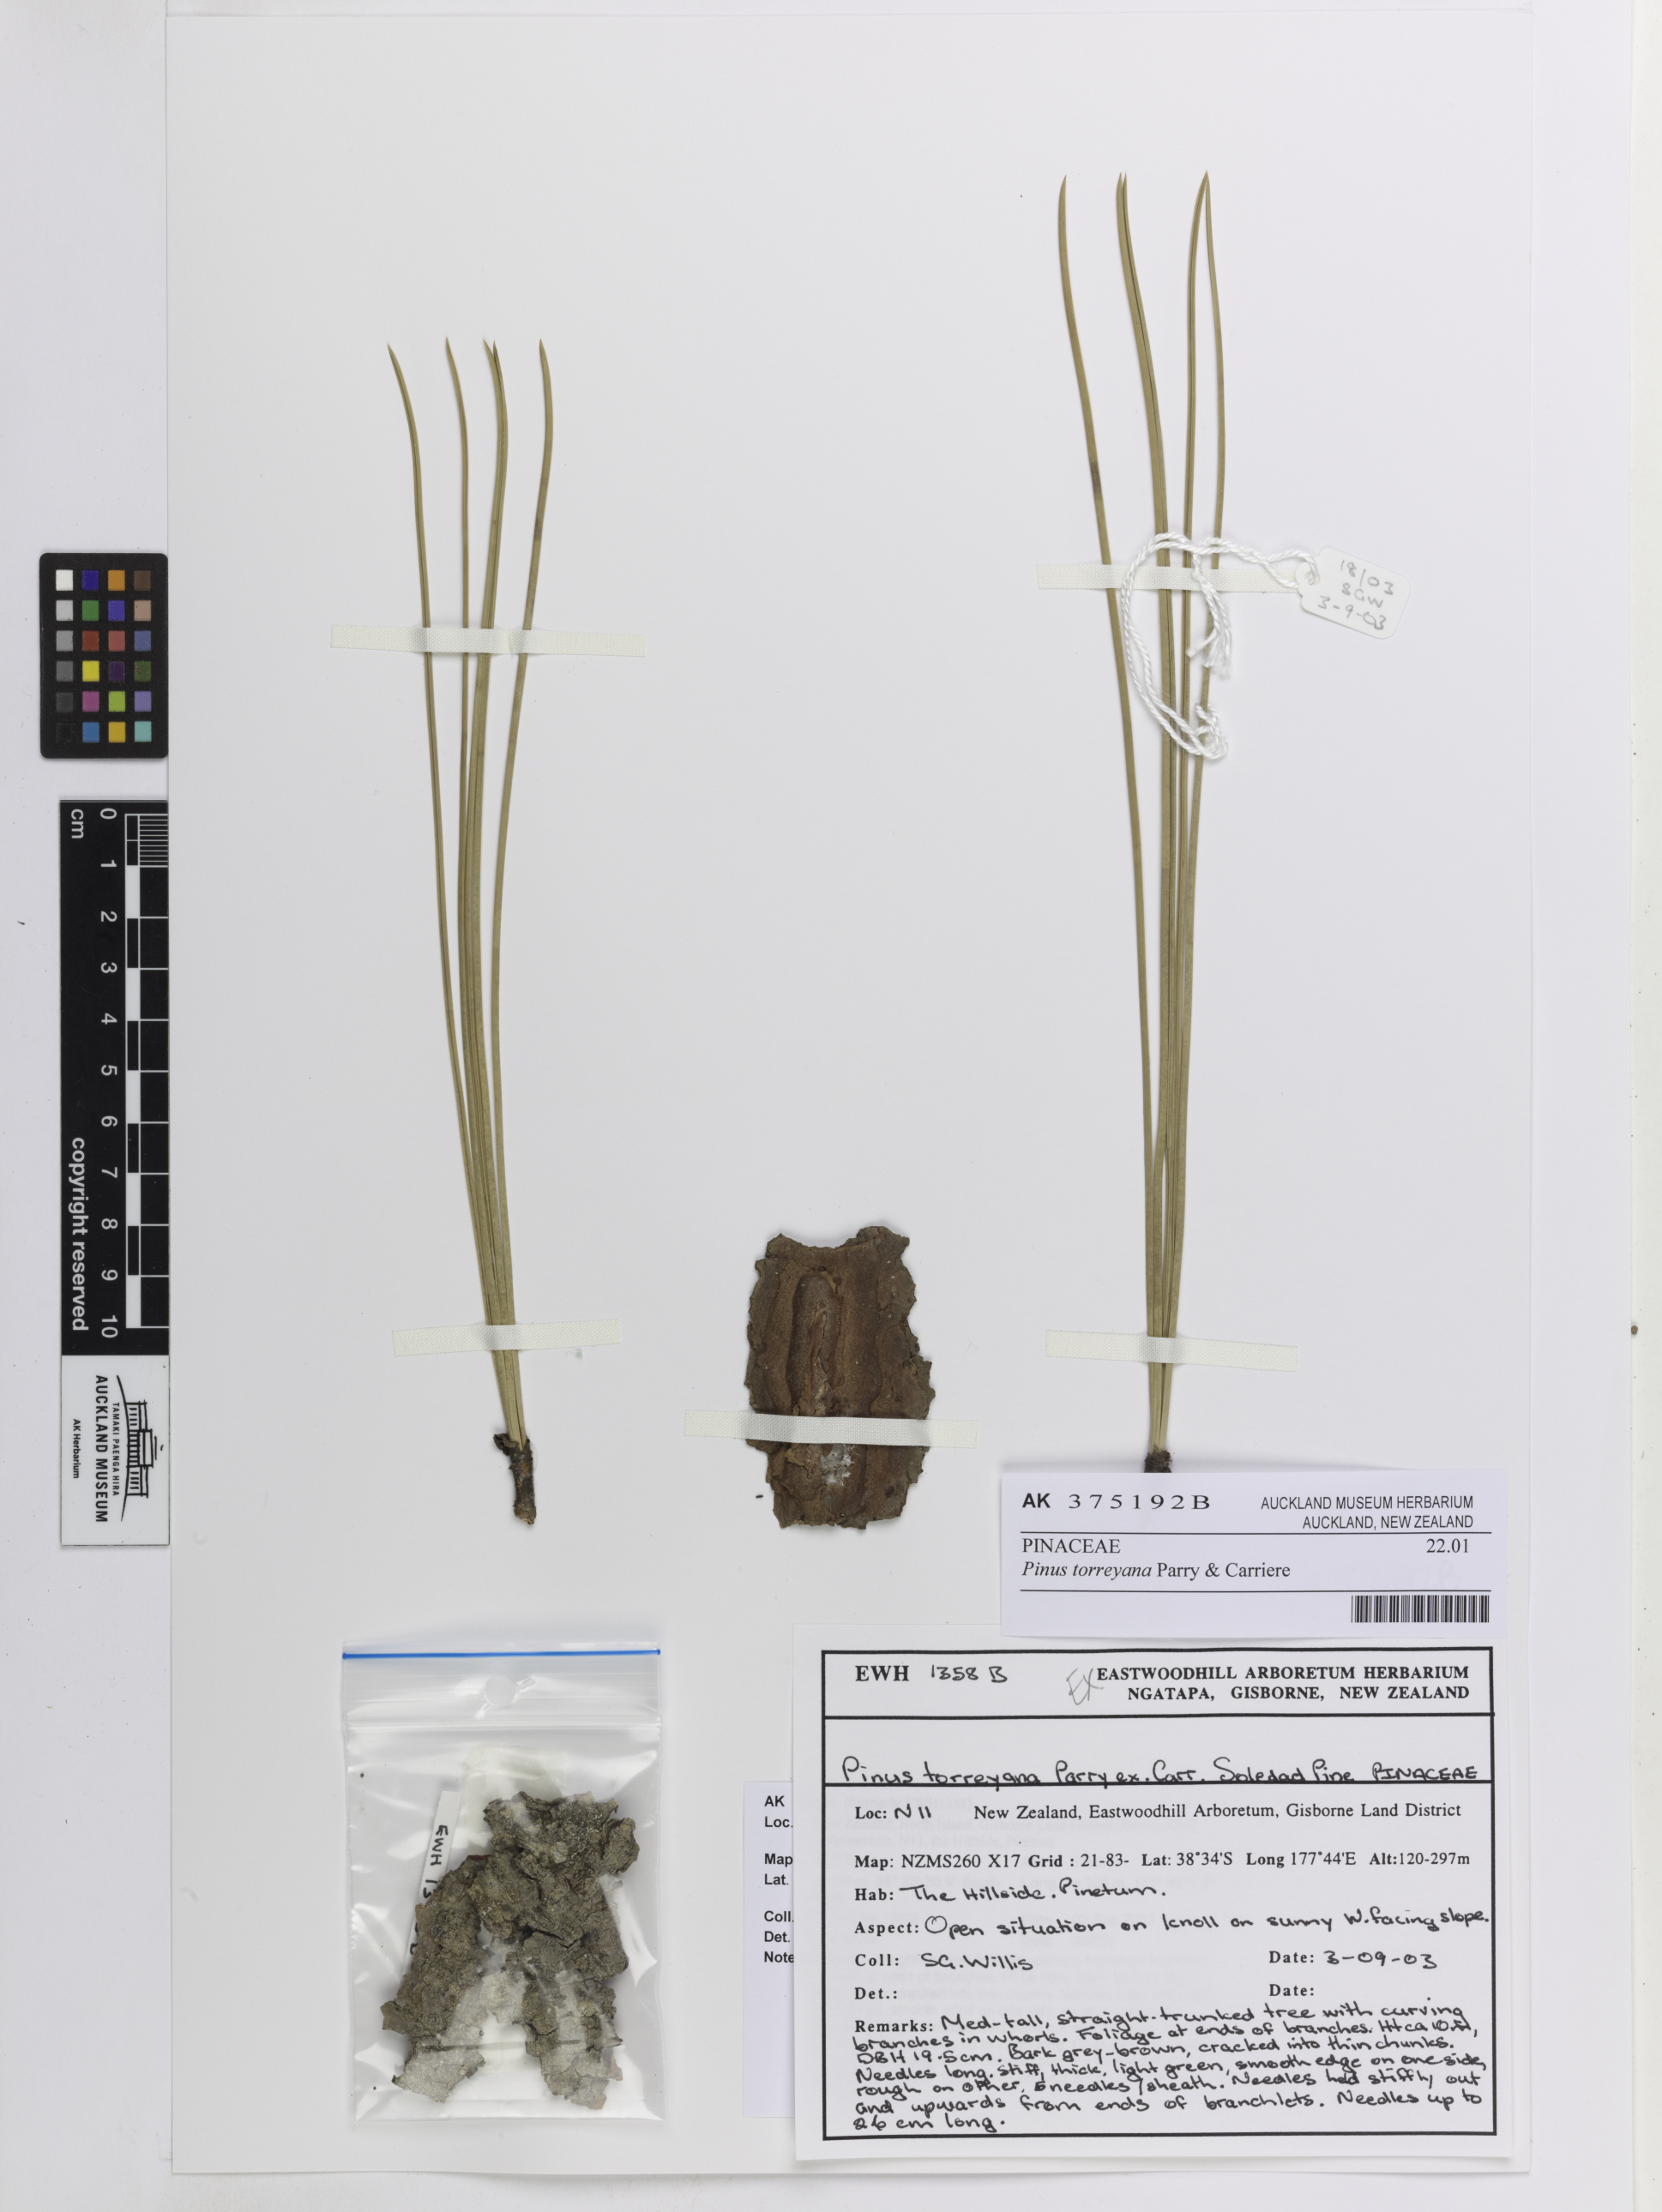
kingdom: Plantae
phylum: Tracheophyta
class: Pinopsida
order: Pinales
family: Pinaceae
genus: Pinus
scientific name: Pinus torreyana
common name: Torrey pine
